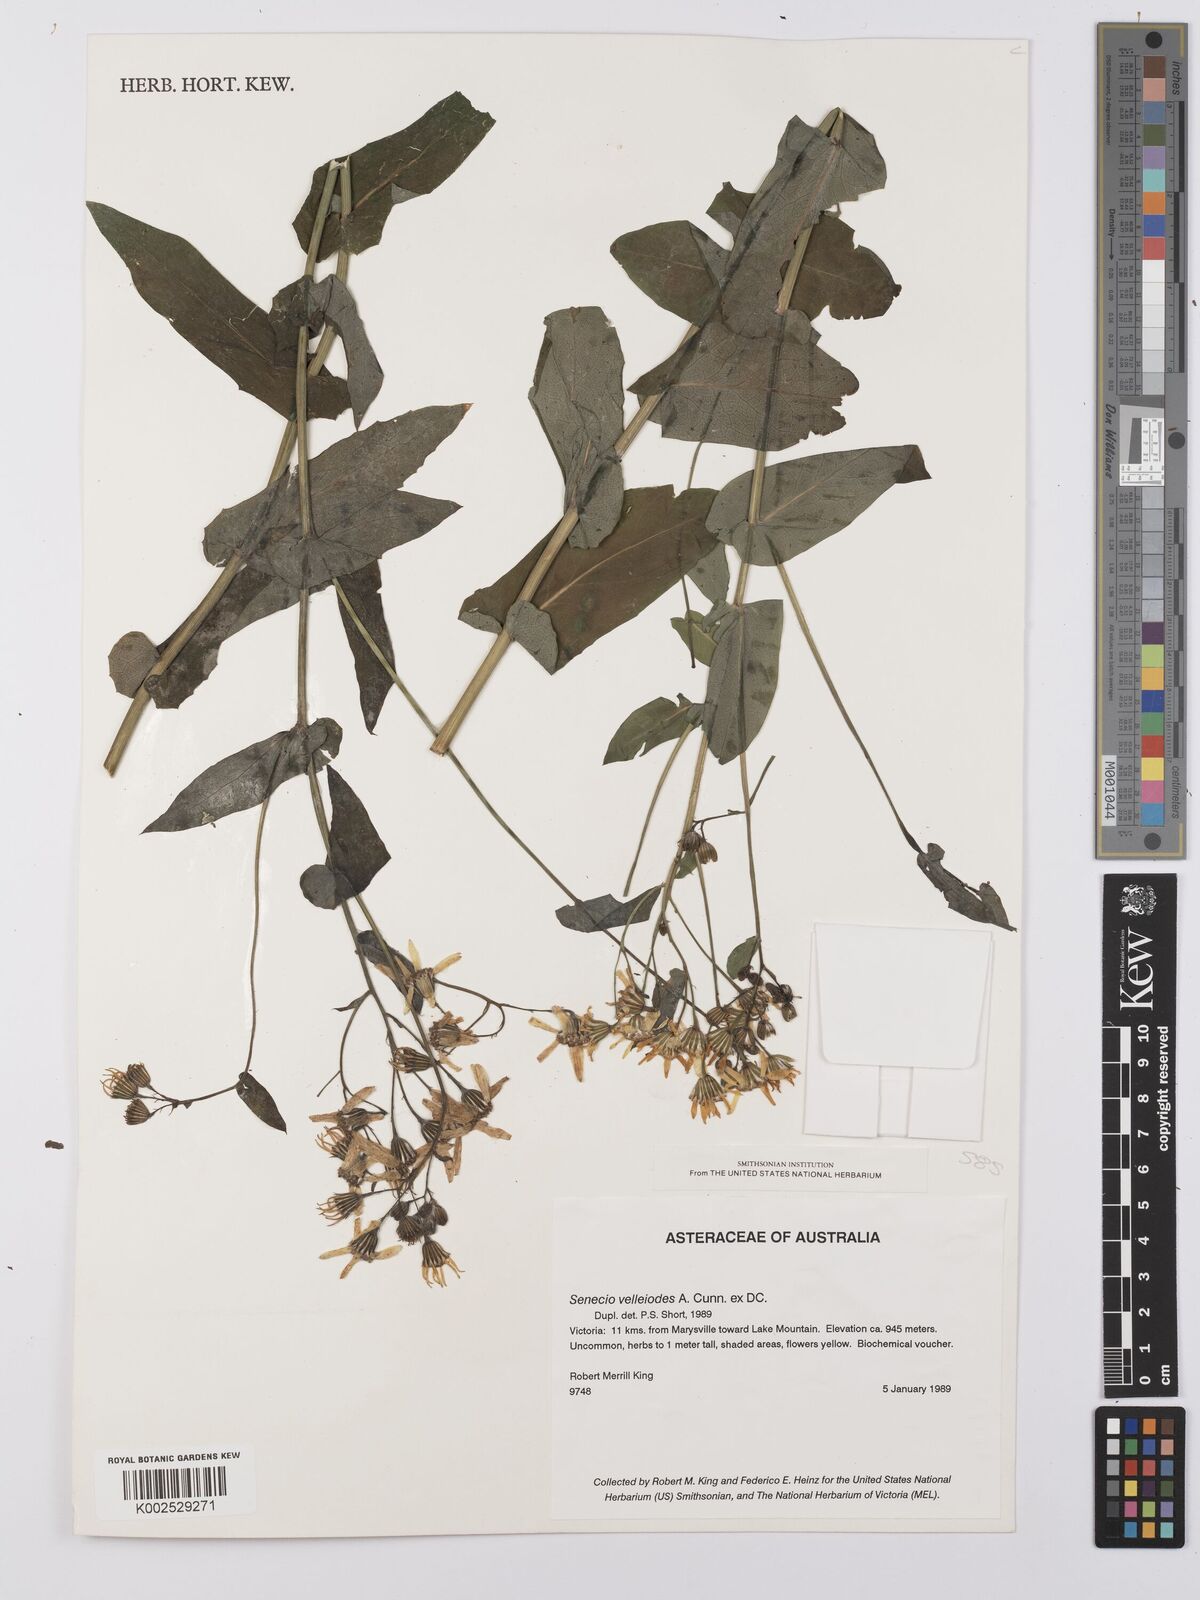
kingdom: Plantae
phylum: Tracheophyta
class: Magnoliopsida
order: Asterales
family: Asteraceae
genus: Lordhowea
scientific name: Lordhowea velleioides
